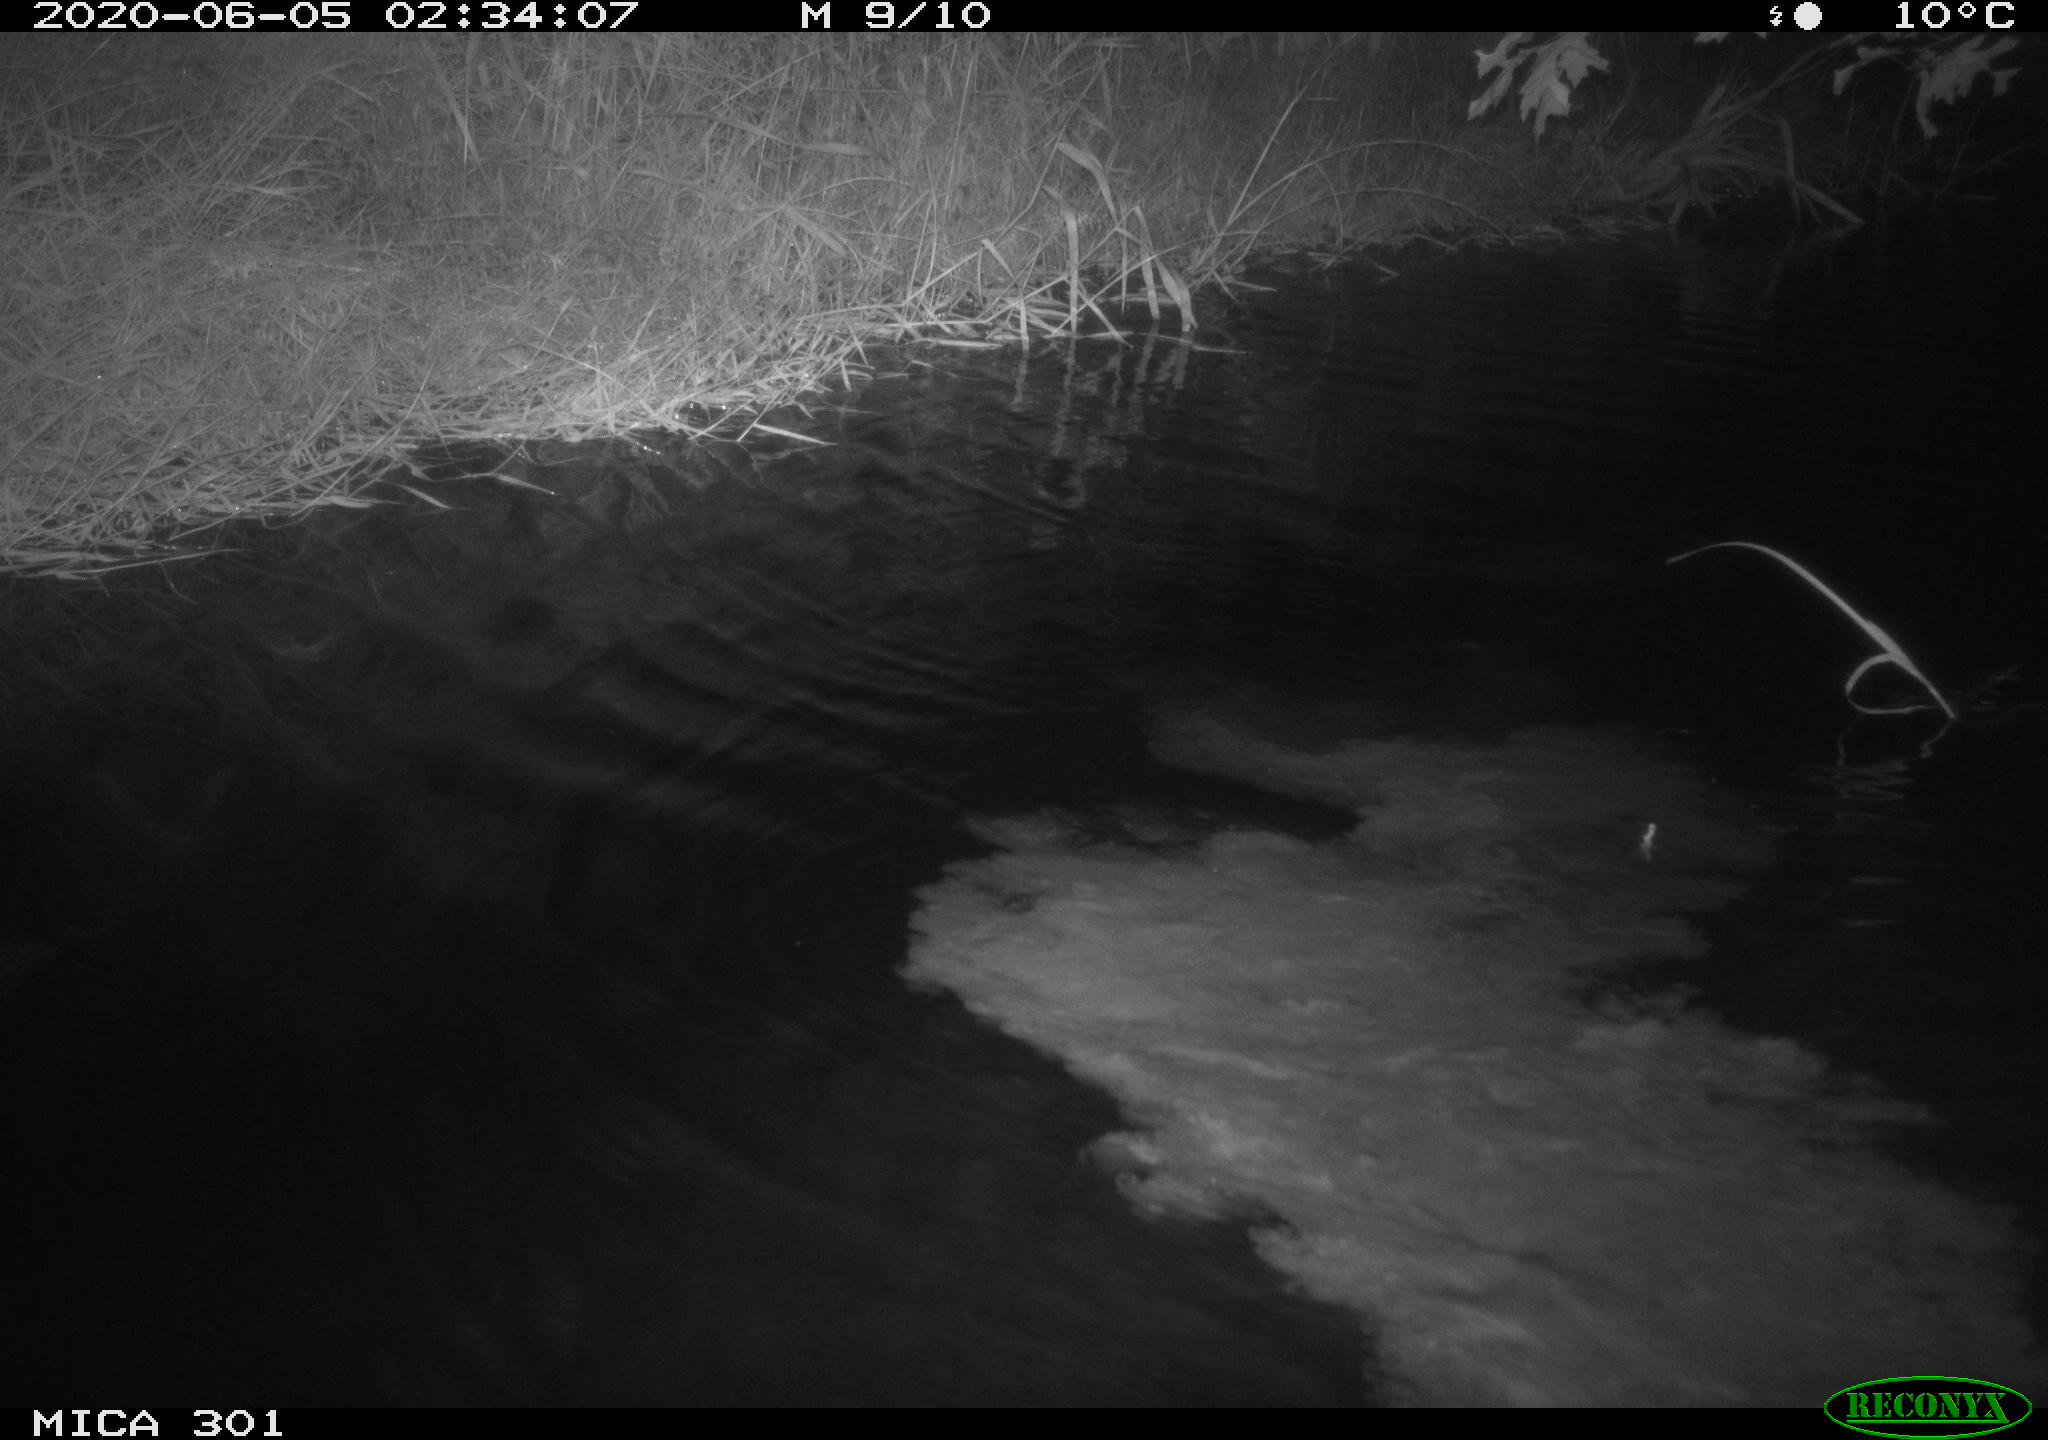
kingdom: Animalia
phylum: Chordata
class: Mammalia
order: Rodentia
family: Castoridae
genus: Castor
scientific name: Castor fiber
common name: Eurasian beaver
